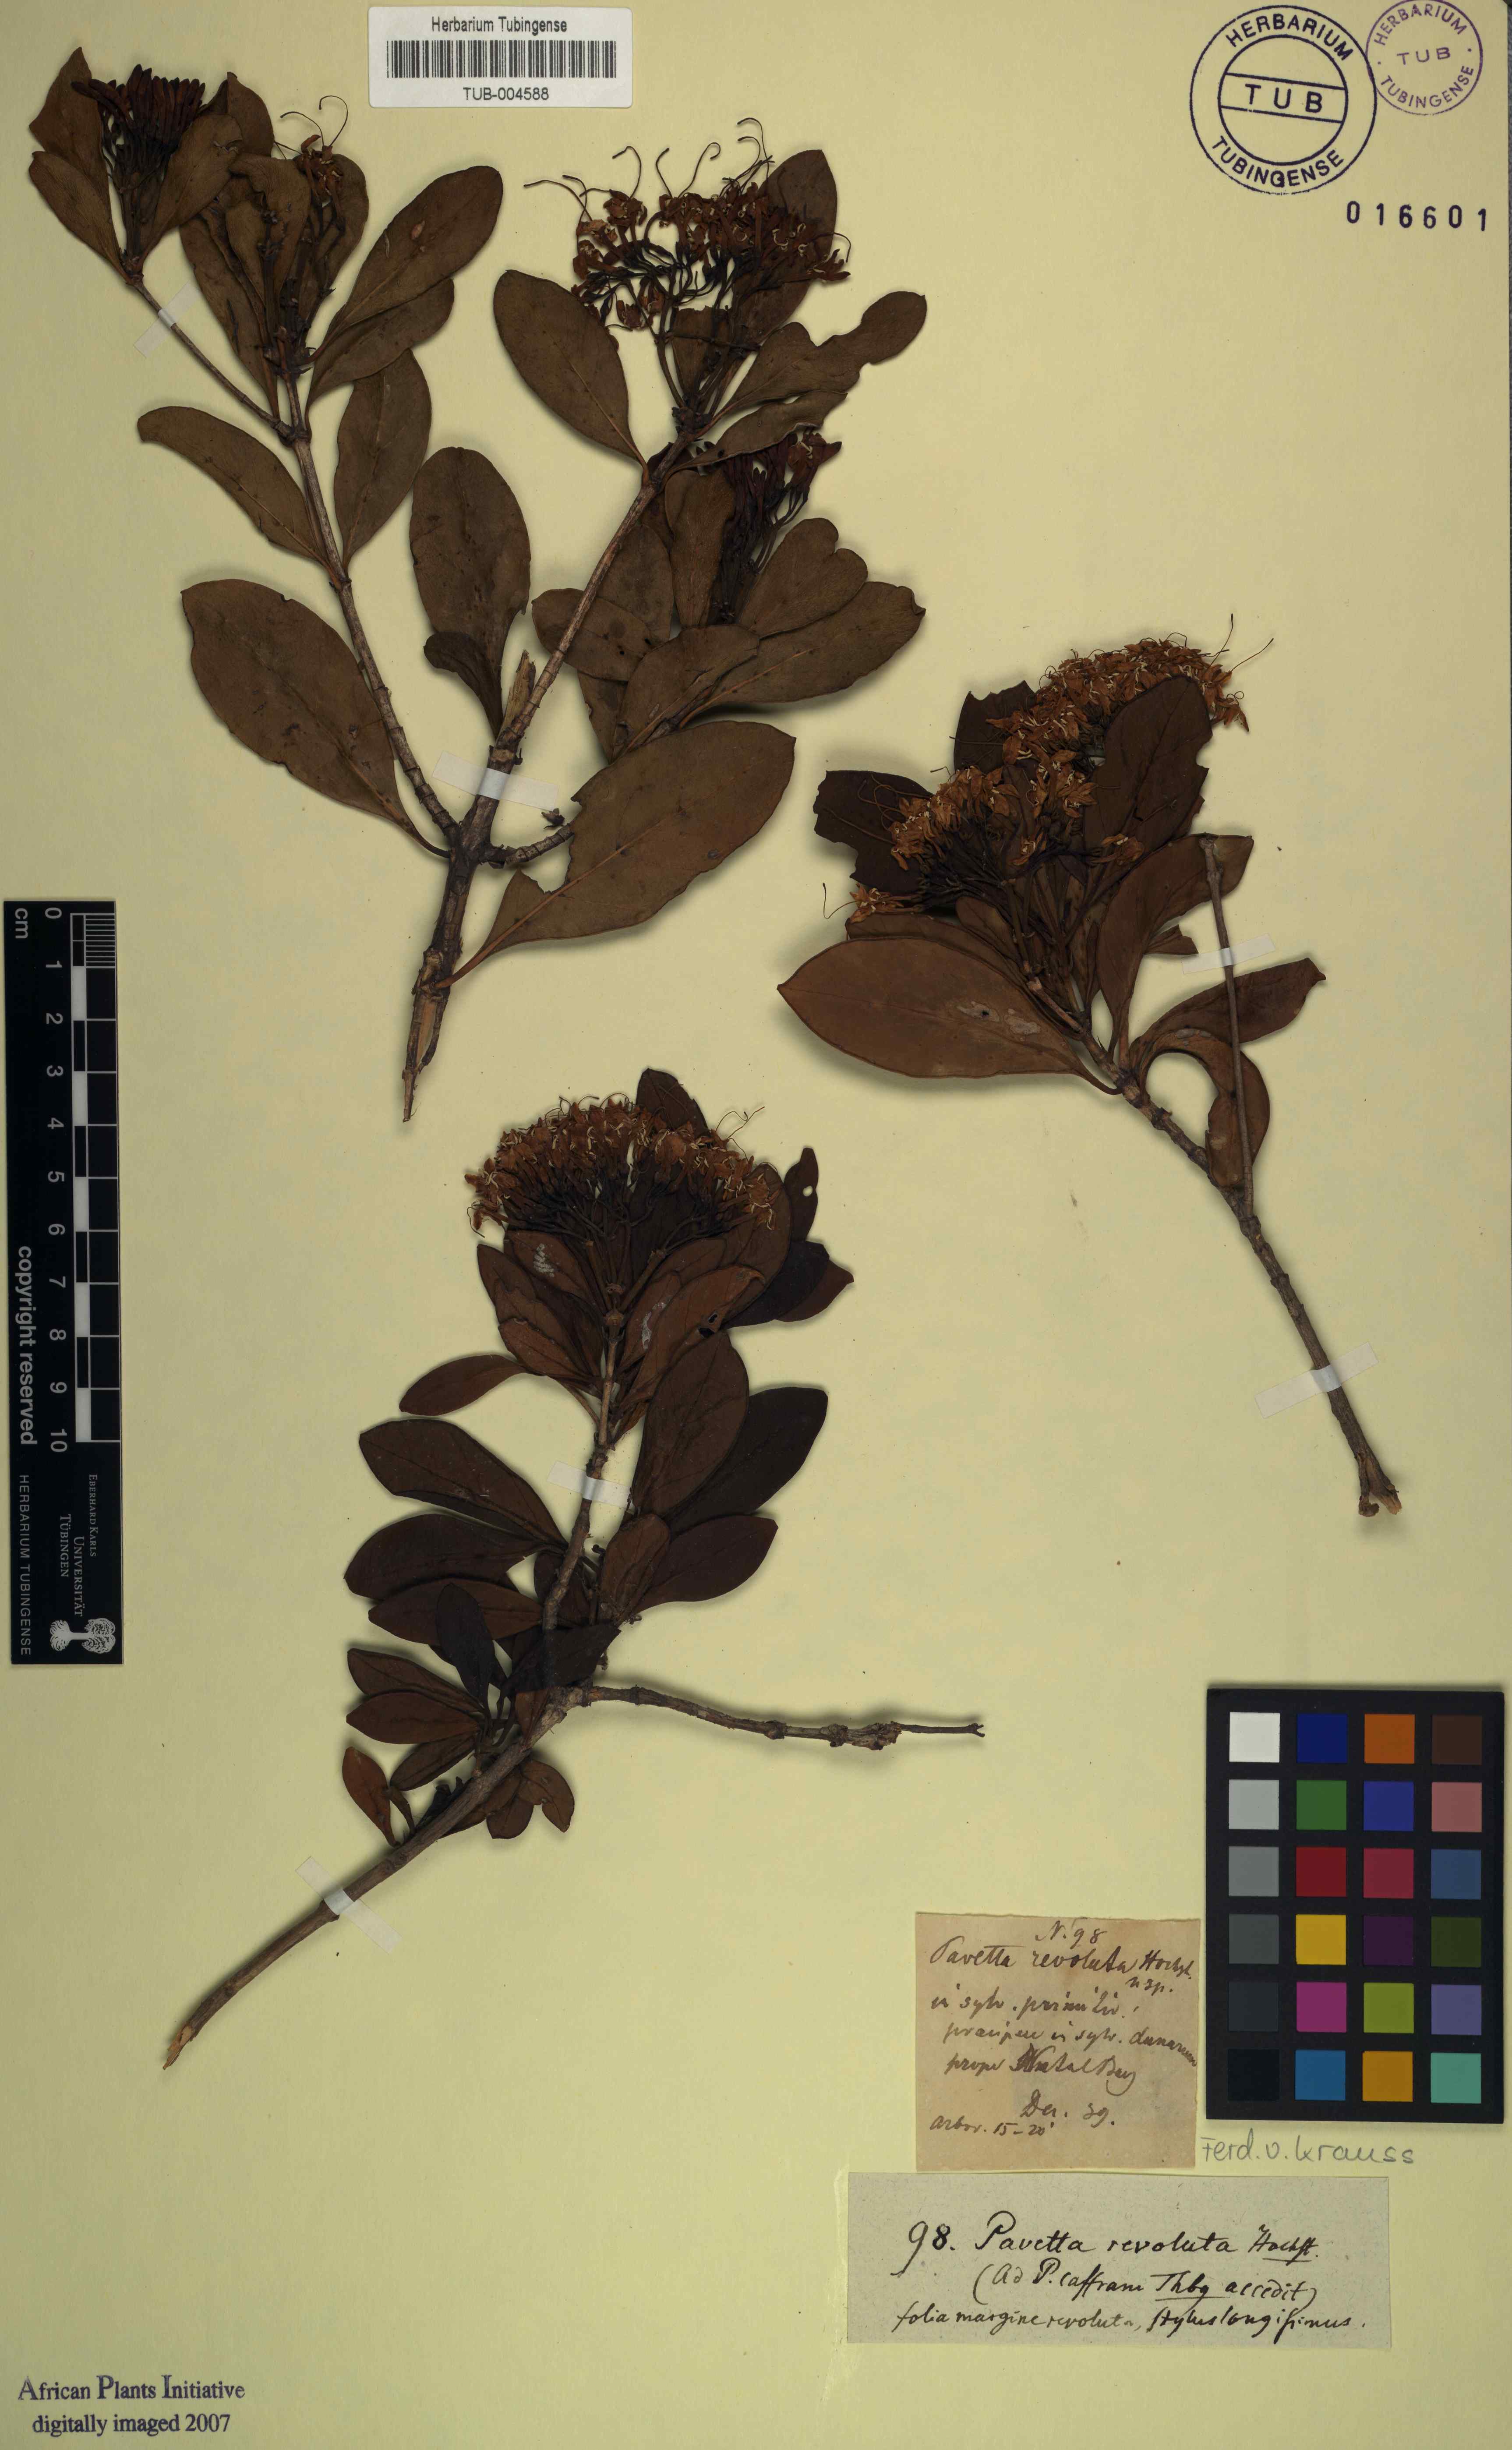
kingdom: Plantae
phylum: Tracheophyta
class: Magnoliopsida
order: Gentianales
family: Rubiaceae
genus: Pavetta
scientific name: Pavetta revoluta
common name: Dune brides-bush
